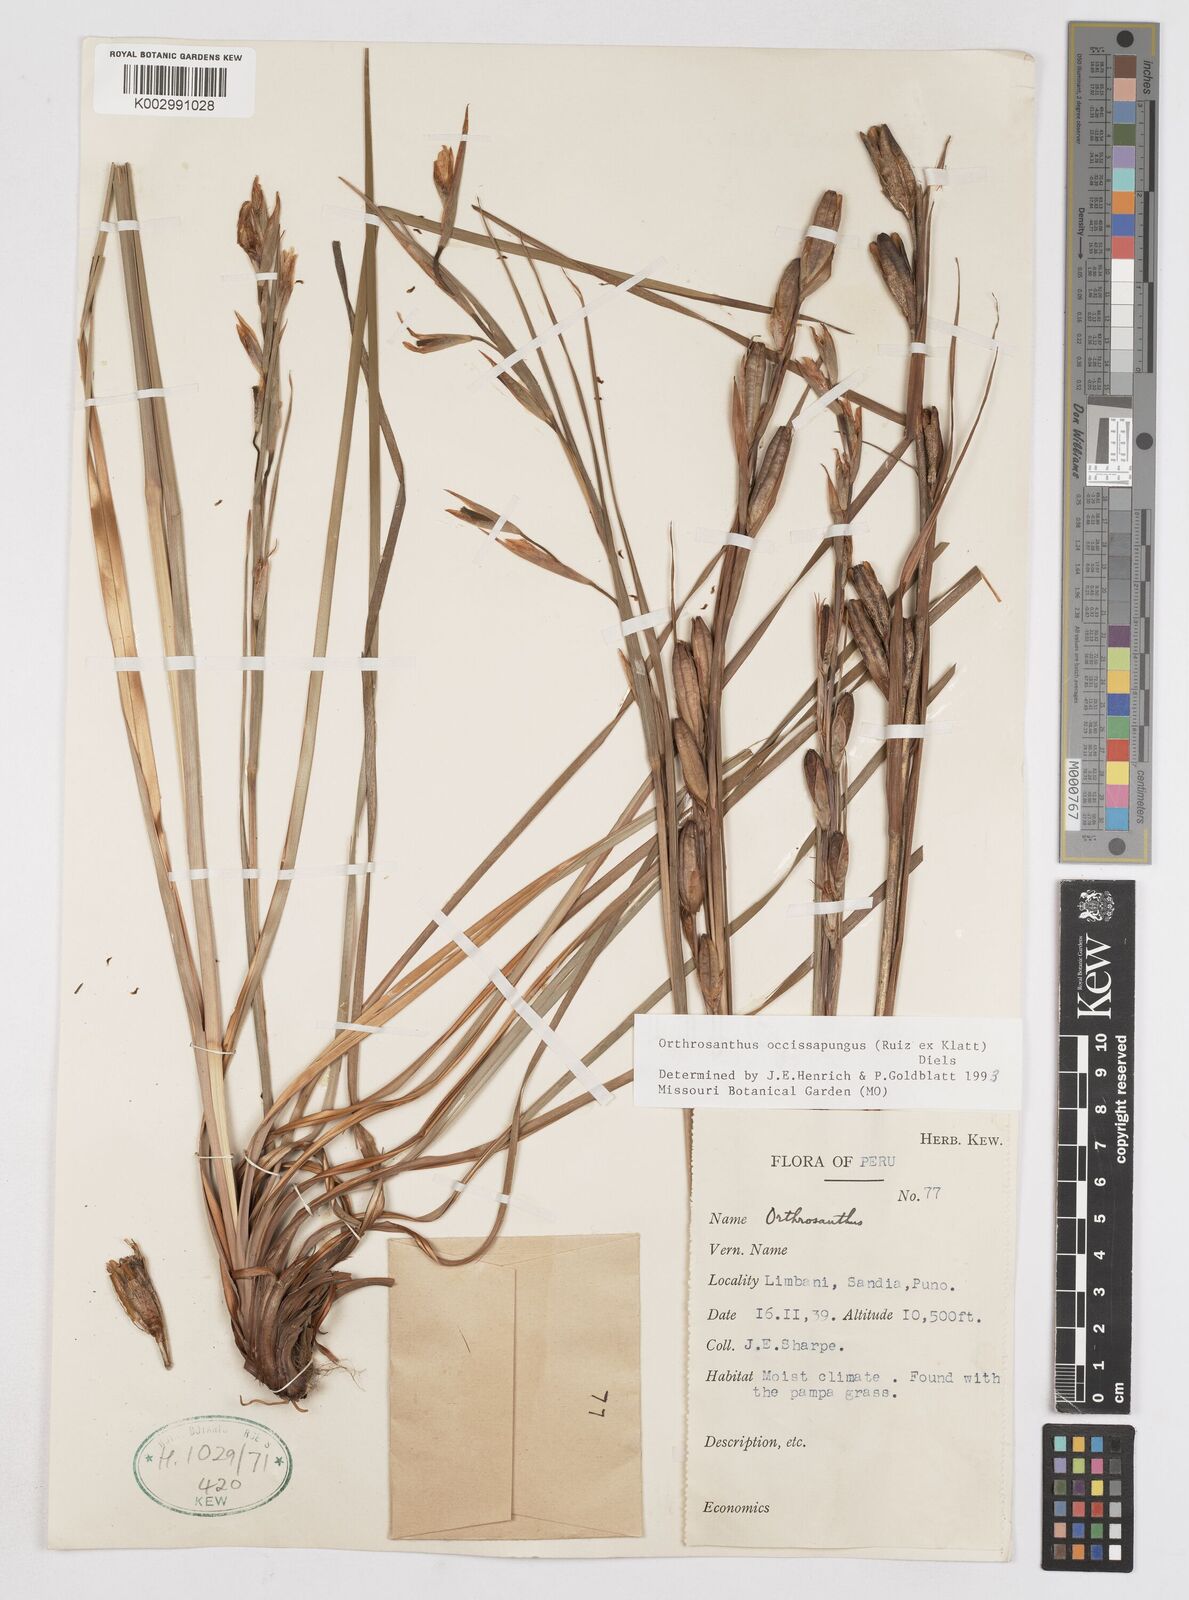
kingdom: Plantae
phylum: Tracheophyta
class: Liliopsida
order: Asparagales
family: Iridaceae
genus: Orthrosanthus
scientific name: Orthrosanthus occissapungus
